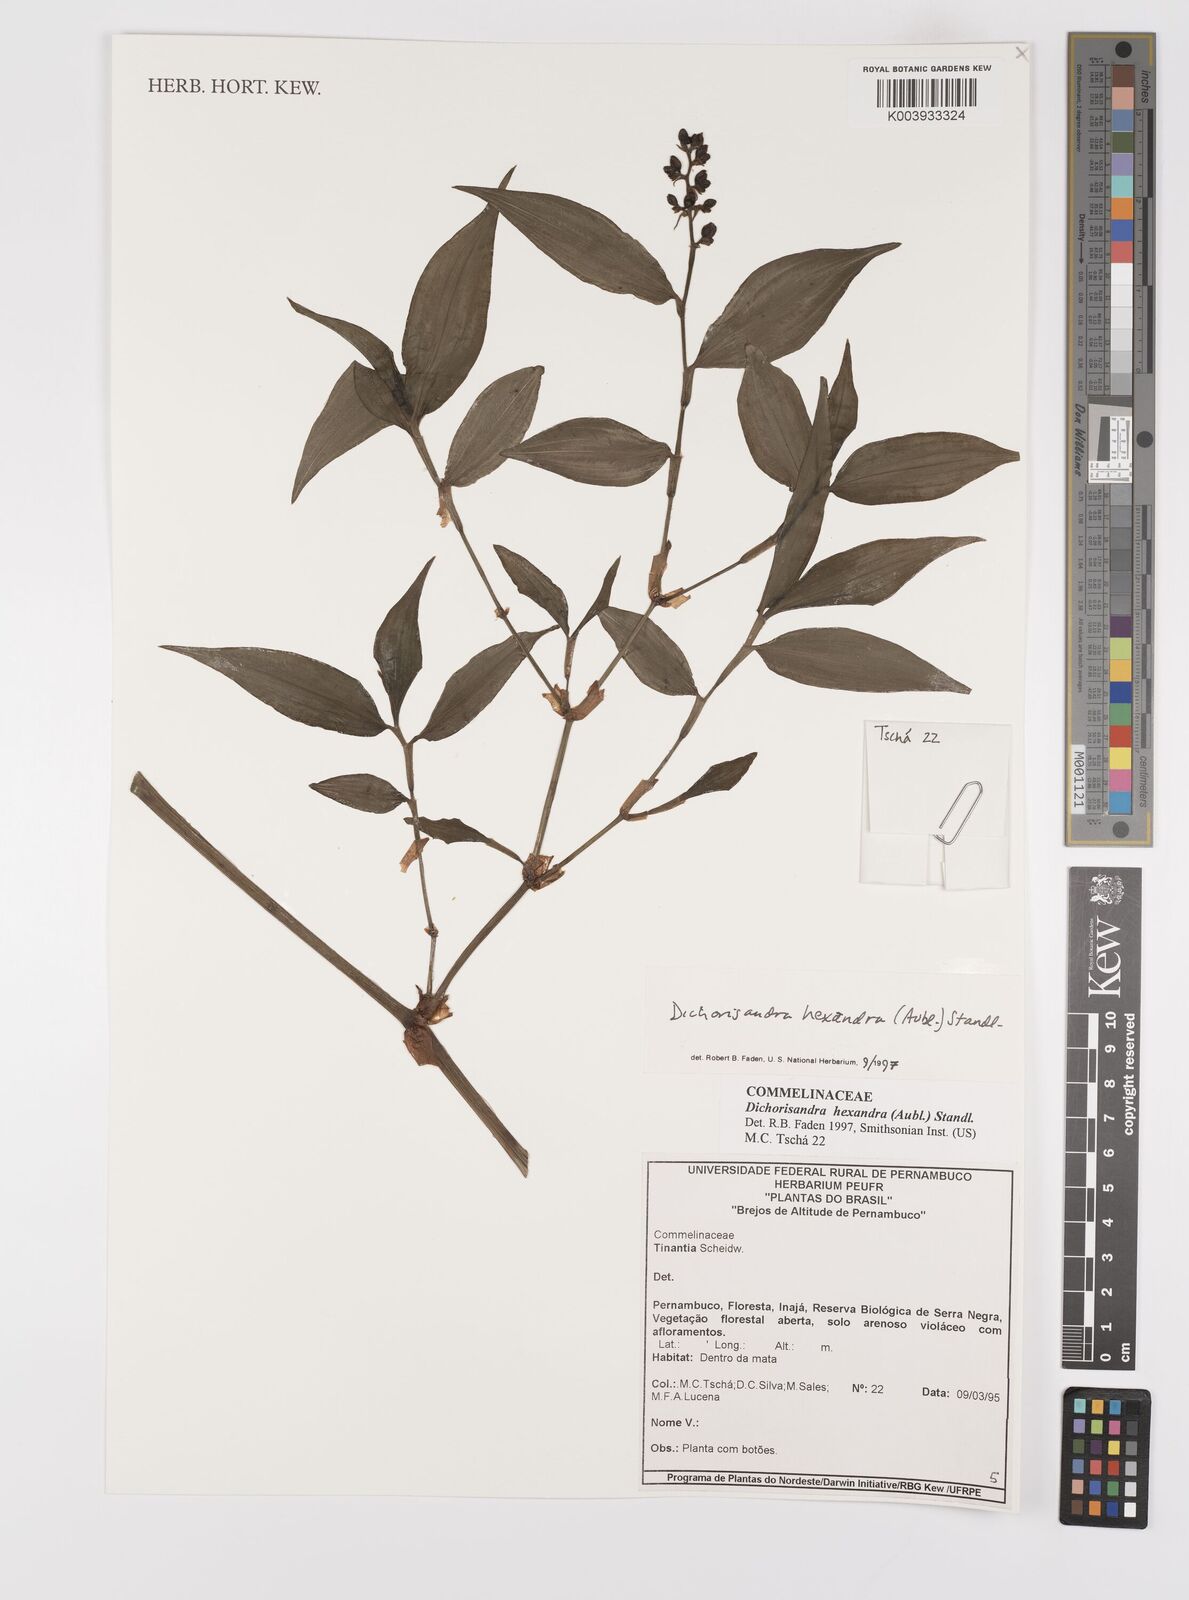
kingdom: Plantae
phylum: Tracheophyta
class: Liliopsida
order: Commelinales
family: Commelinaceae
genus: Dichorisandra
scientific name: Dichorisandra hexandra
